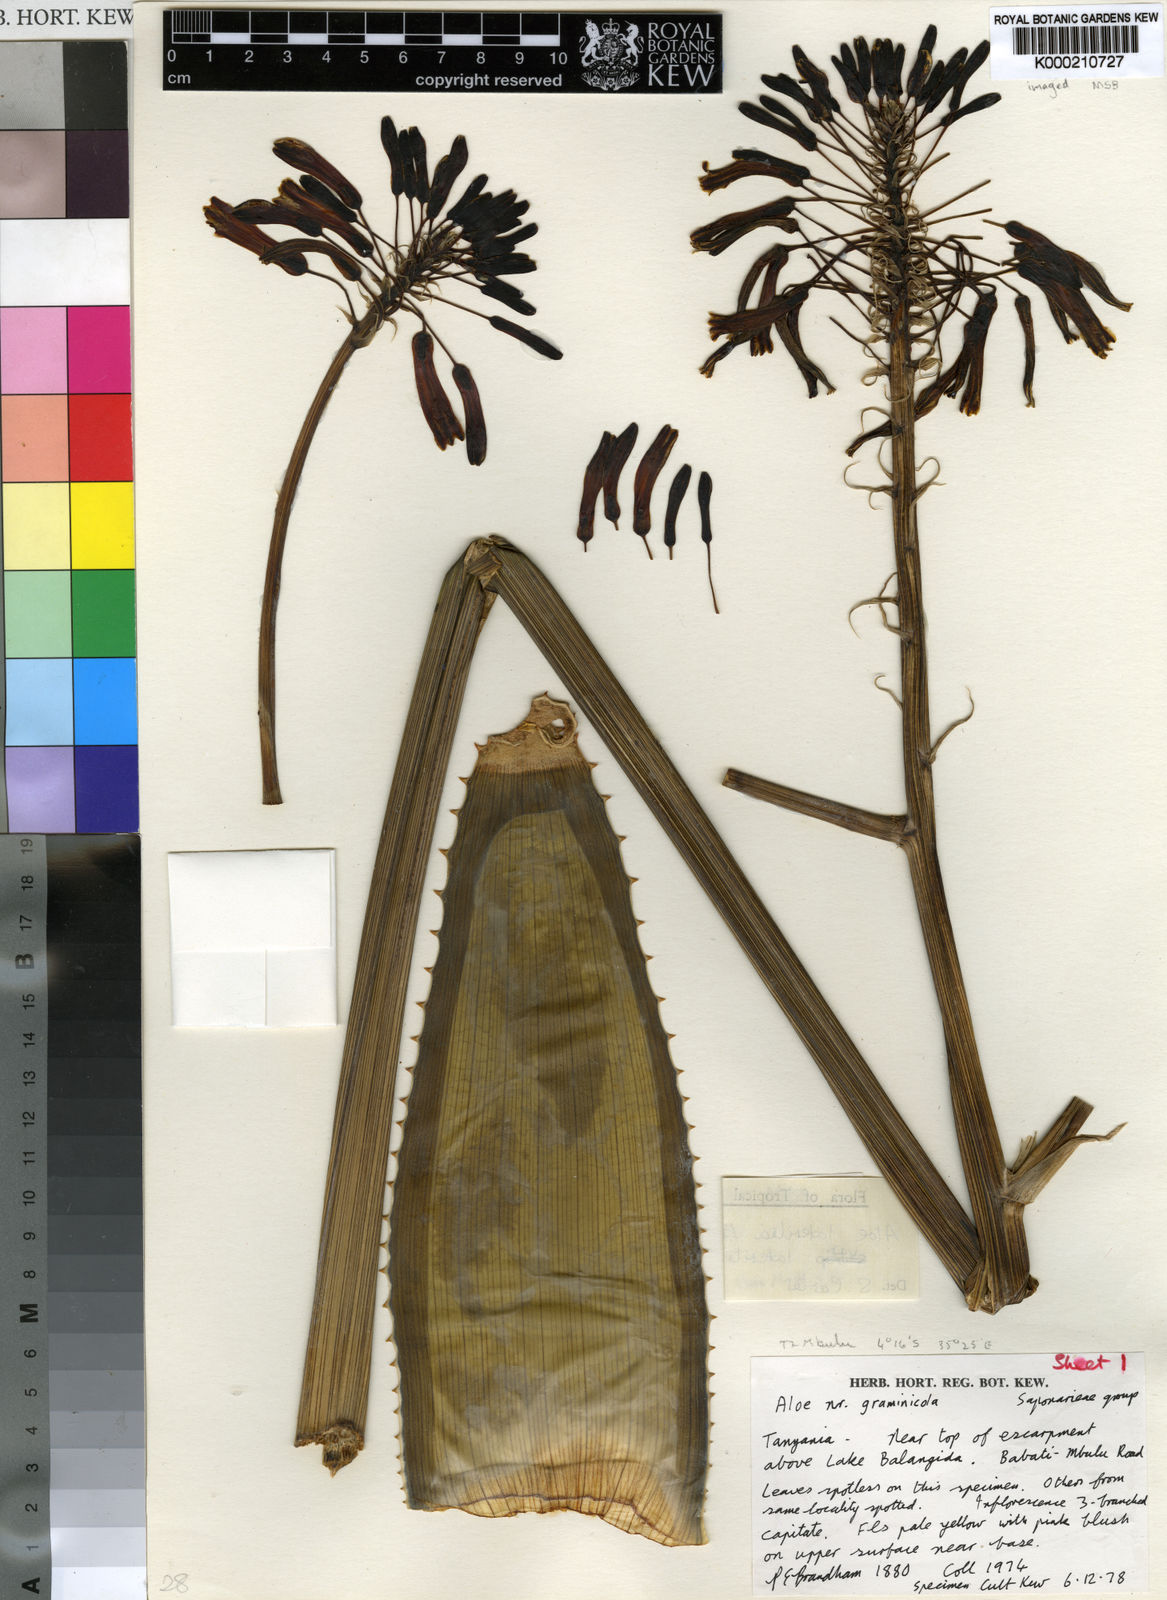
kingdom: Plantae
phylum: Tracheophyta
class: Liliopsida
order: Asparagales
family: Asphodelaceae
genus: Aloe
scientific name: Aloe lateritia
